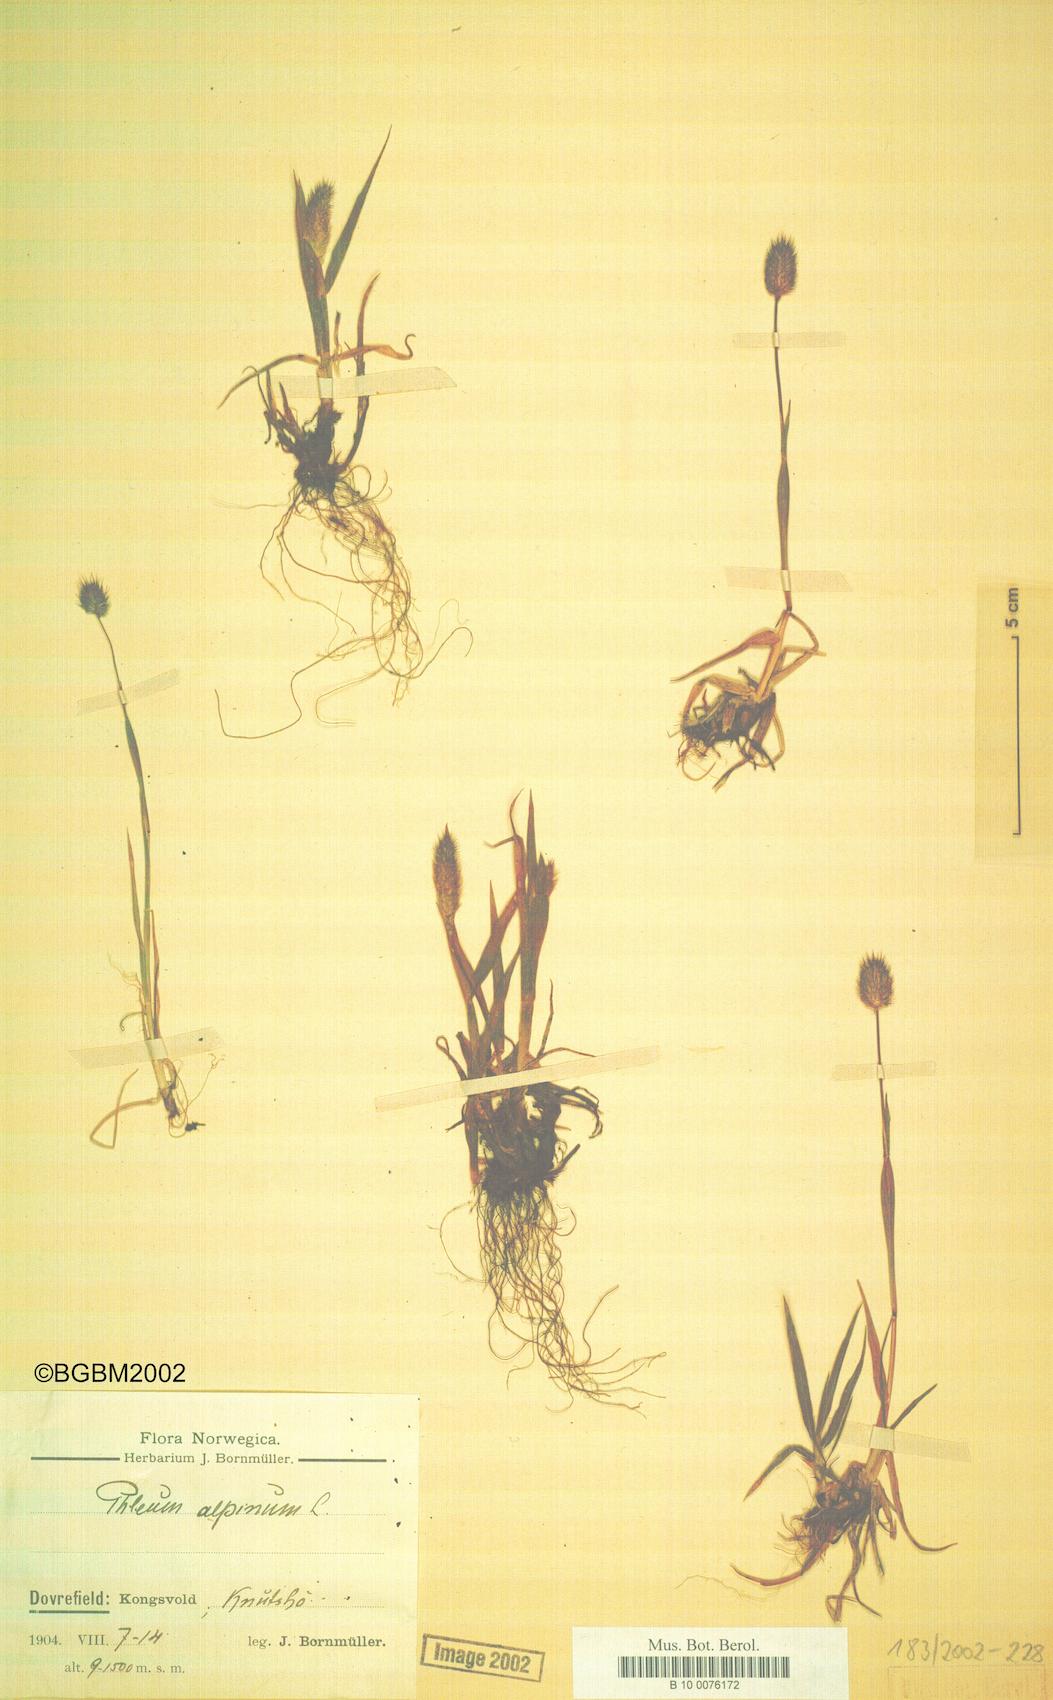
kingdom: Plantae
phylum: Tracheophyta
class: Liliopsida
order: Poales
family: Poaceae
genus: Phleum
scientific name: Phleum alpinum
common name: Alpine cat's-tail
